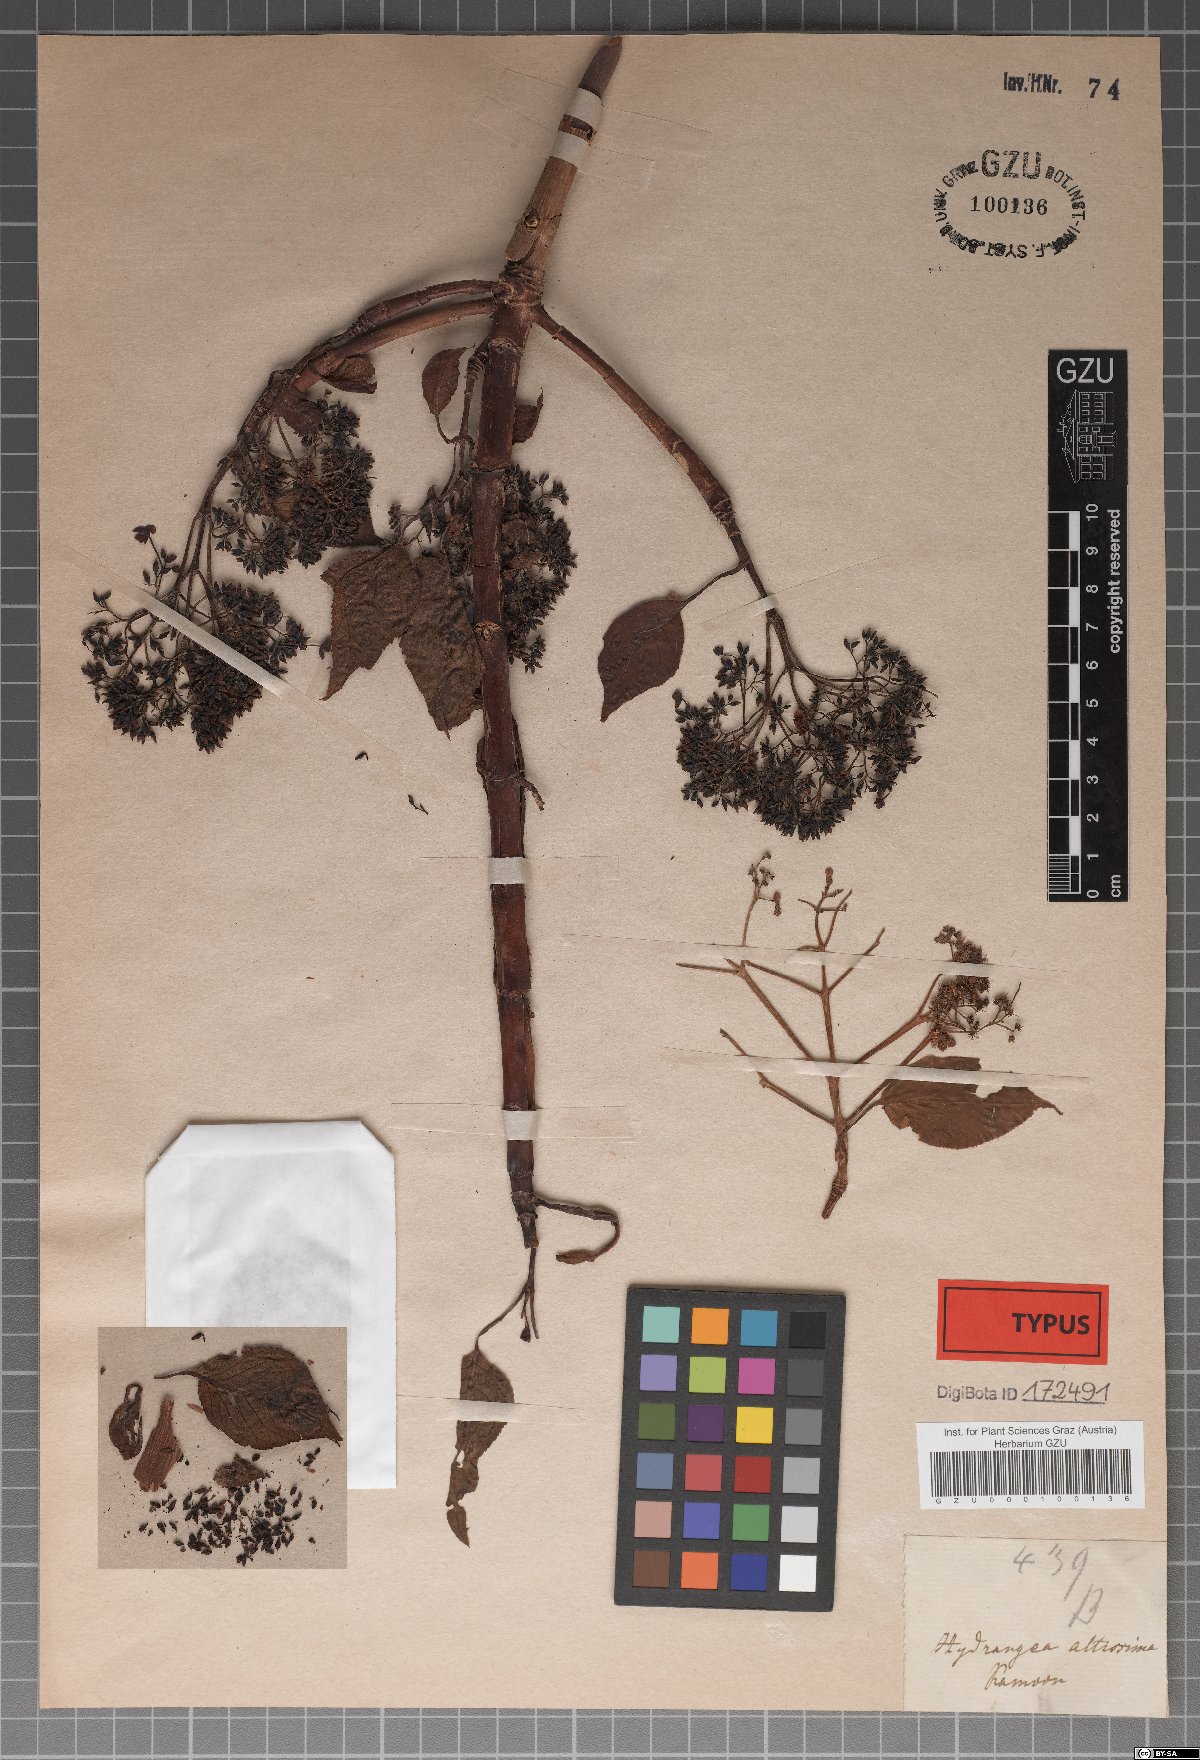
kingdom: Plantae
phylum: Tracheophyta
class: Magnoliopsida
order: Cornales
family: Hydrangeaceae
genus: Hydrangea
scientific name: Hydrangea anomala
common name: Japanese climbing-hydrangea
